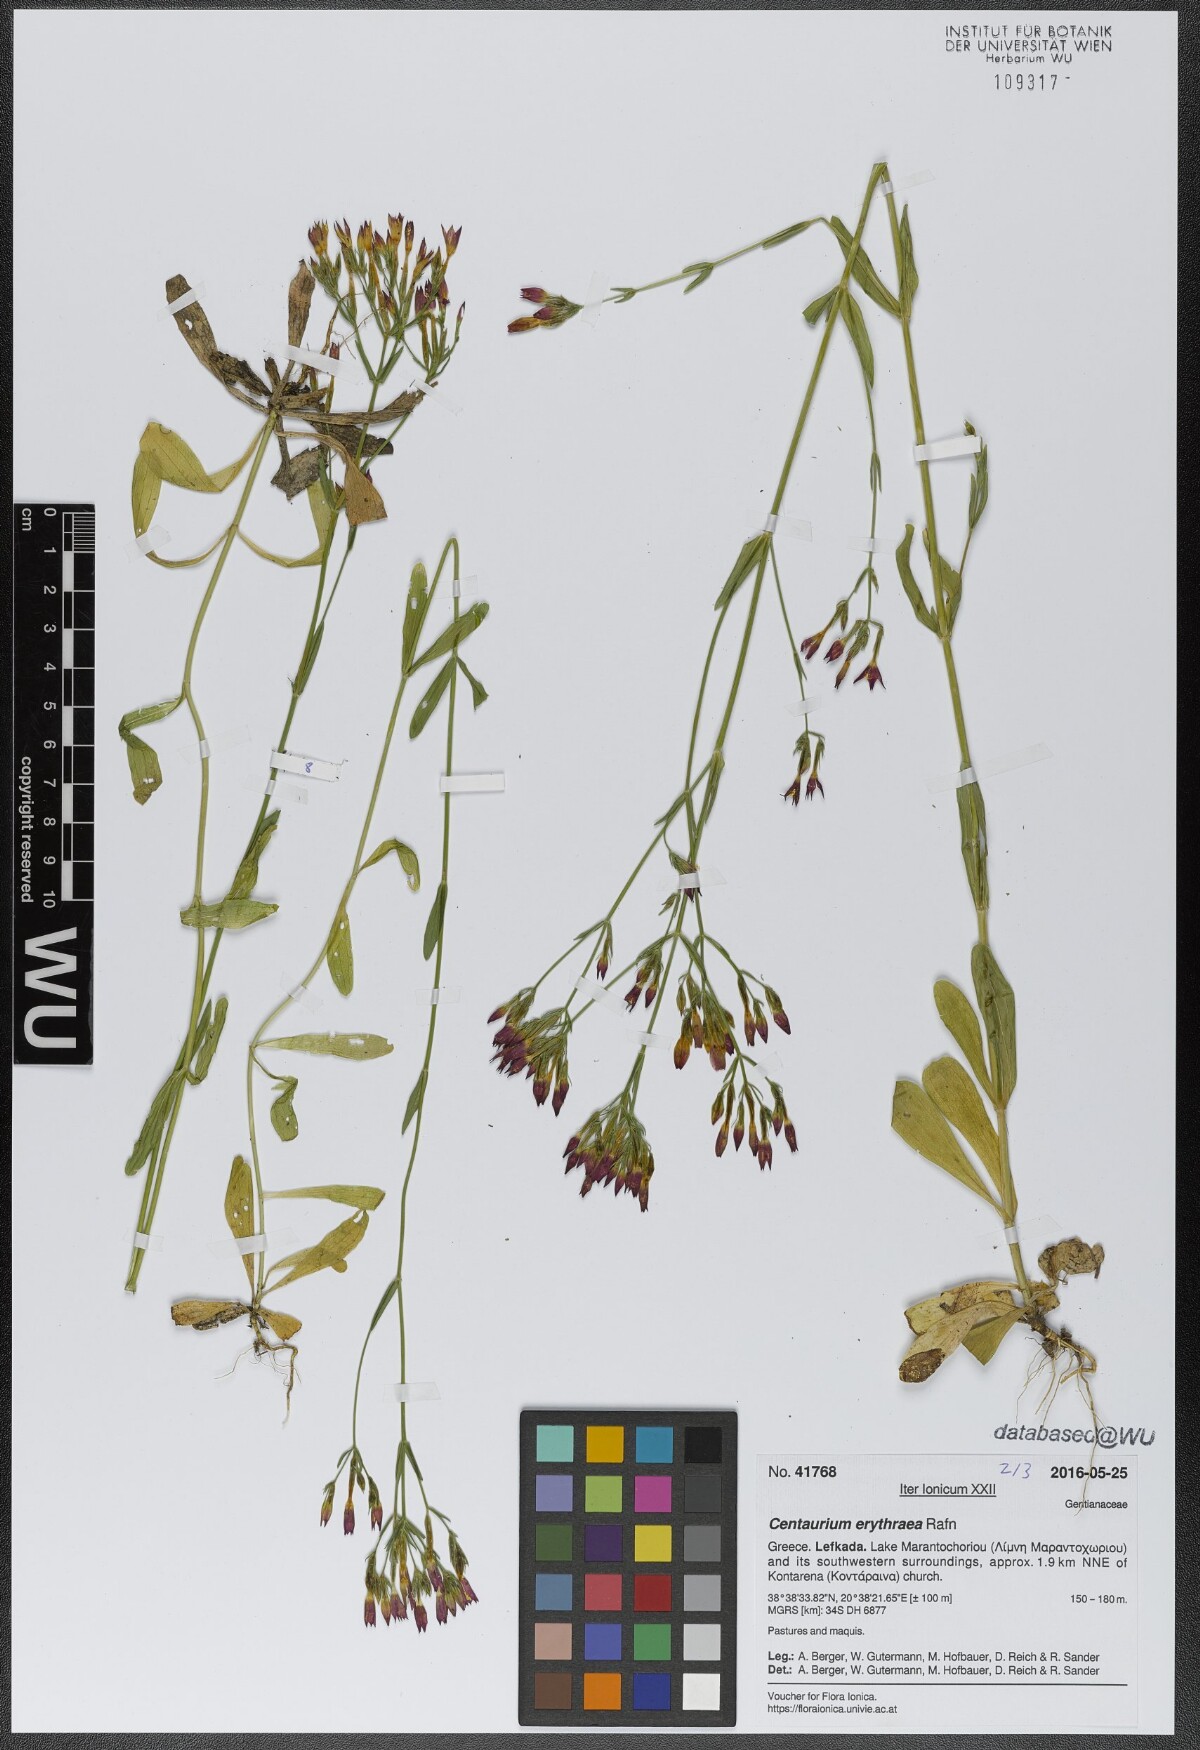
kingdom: Plantae
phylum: Tracheophyta
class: Magnoliopsida
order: Gentianales
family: Gentianaceae
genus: Centaurium
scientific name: Centaurium erythraea
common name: Common centaury
